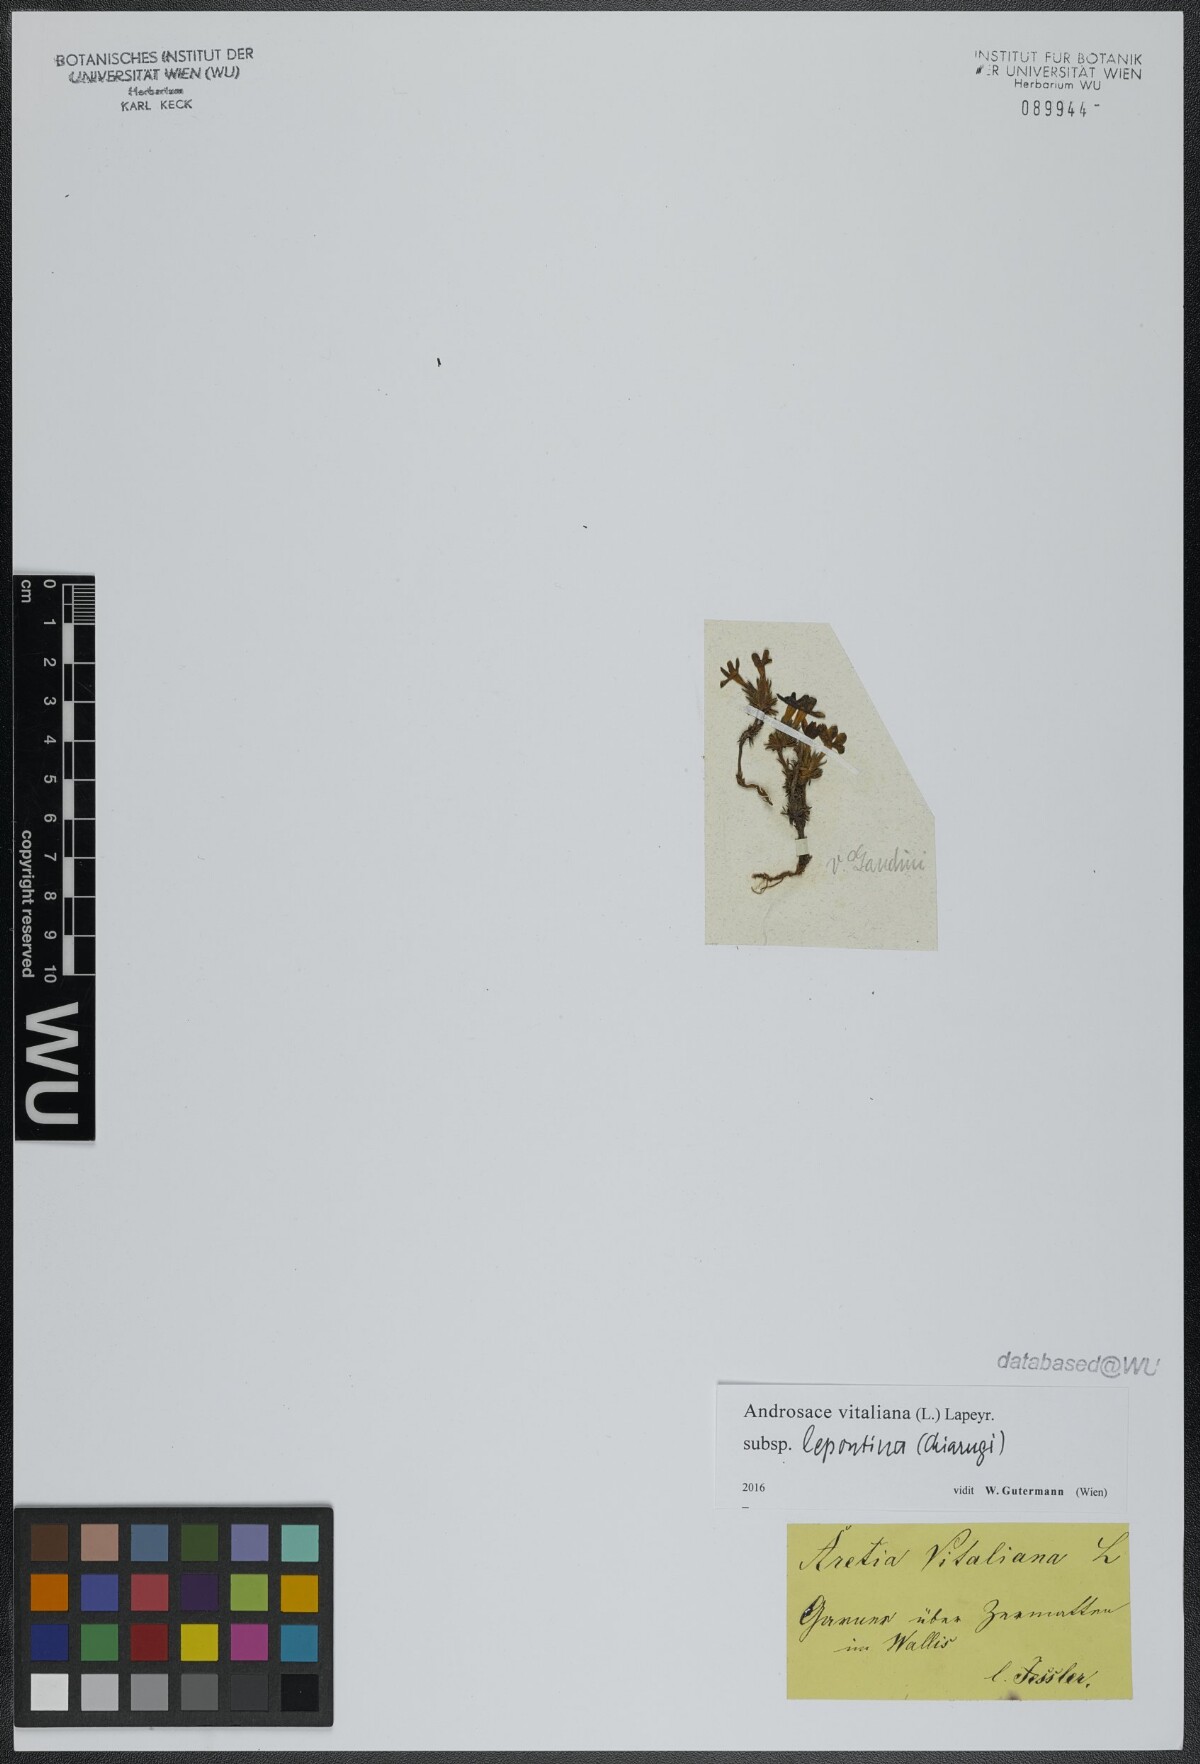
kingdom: Plantae
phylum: Tracheophyta
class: Magnoliopsida
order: Ericales
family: Primulaceae
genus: Androsace
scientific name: Androsace vitaliana
